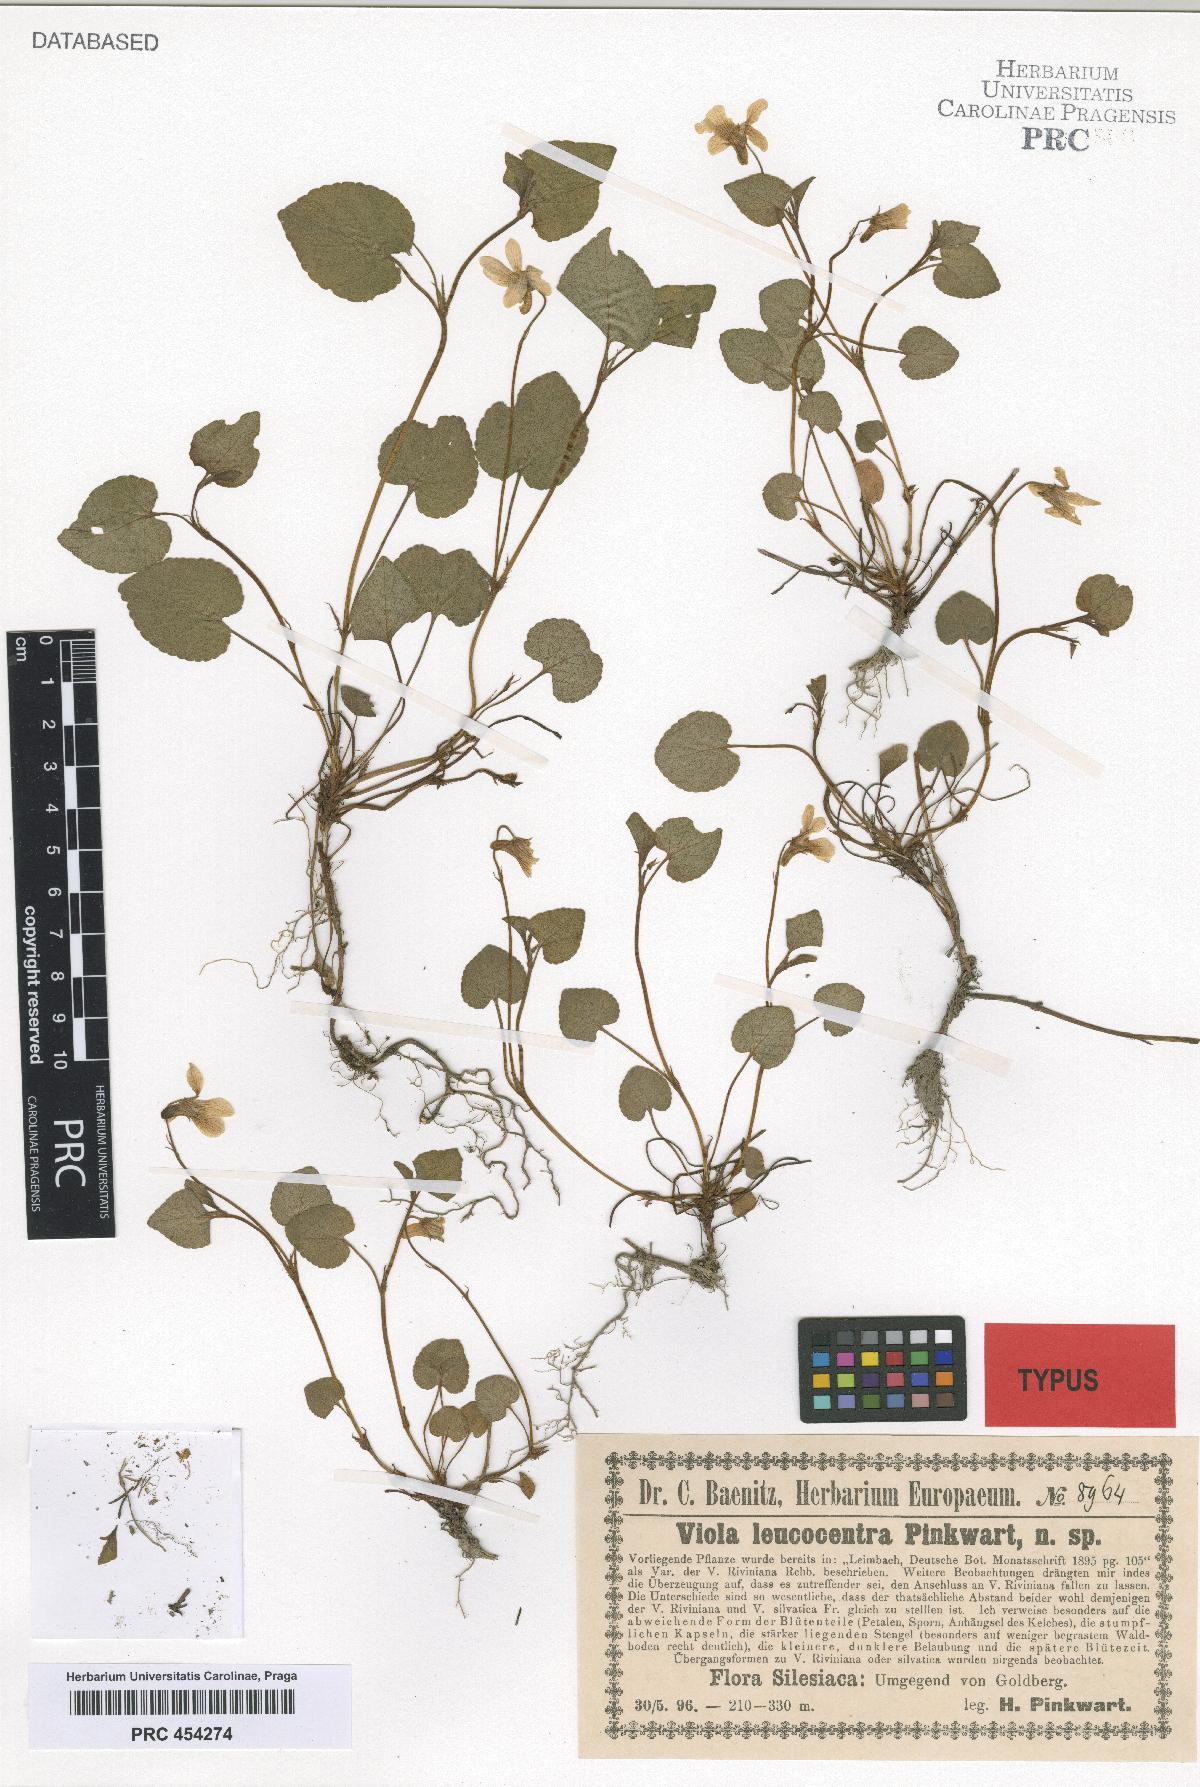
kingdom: Plantae
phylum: Tracheophyta
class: Magnoliopsida
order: Malpighiales
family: Violaceae
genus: Viola
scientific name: Viola reichenbachiana
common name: Early dog-violet
